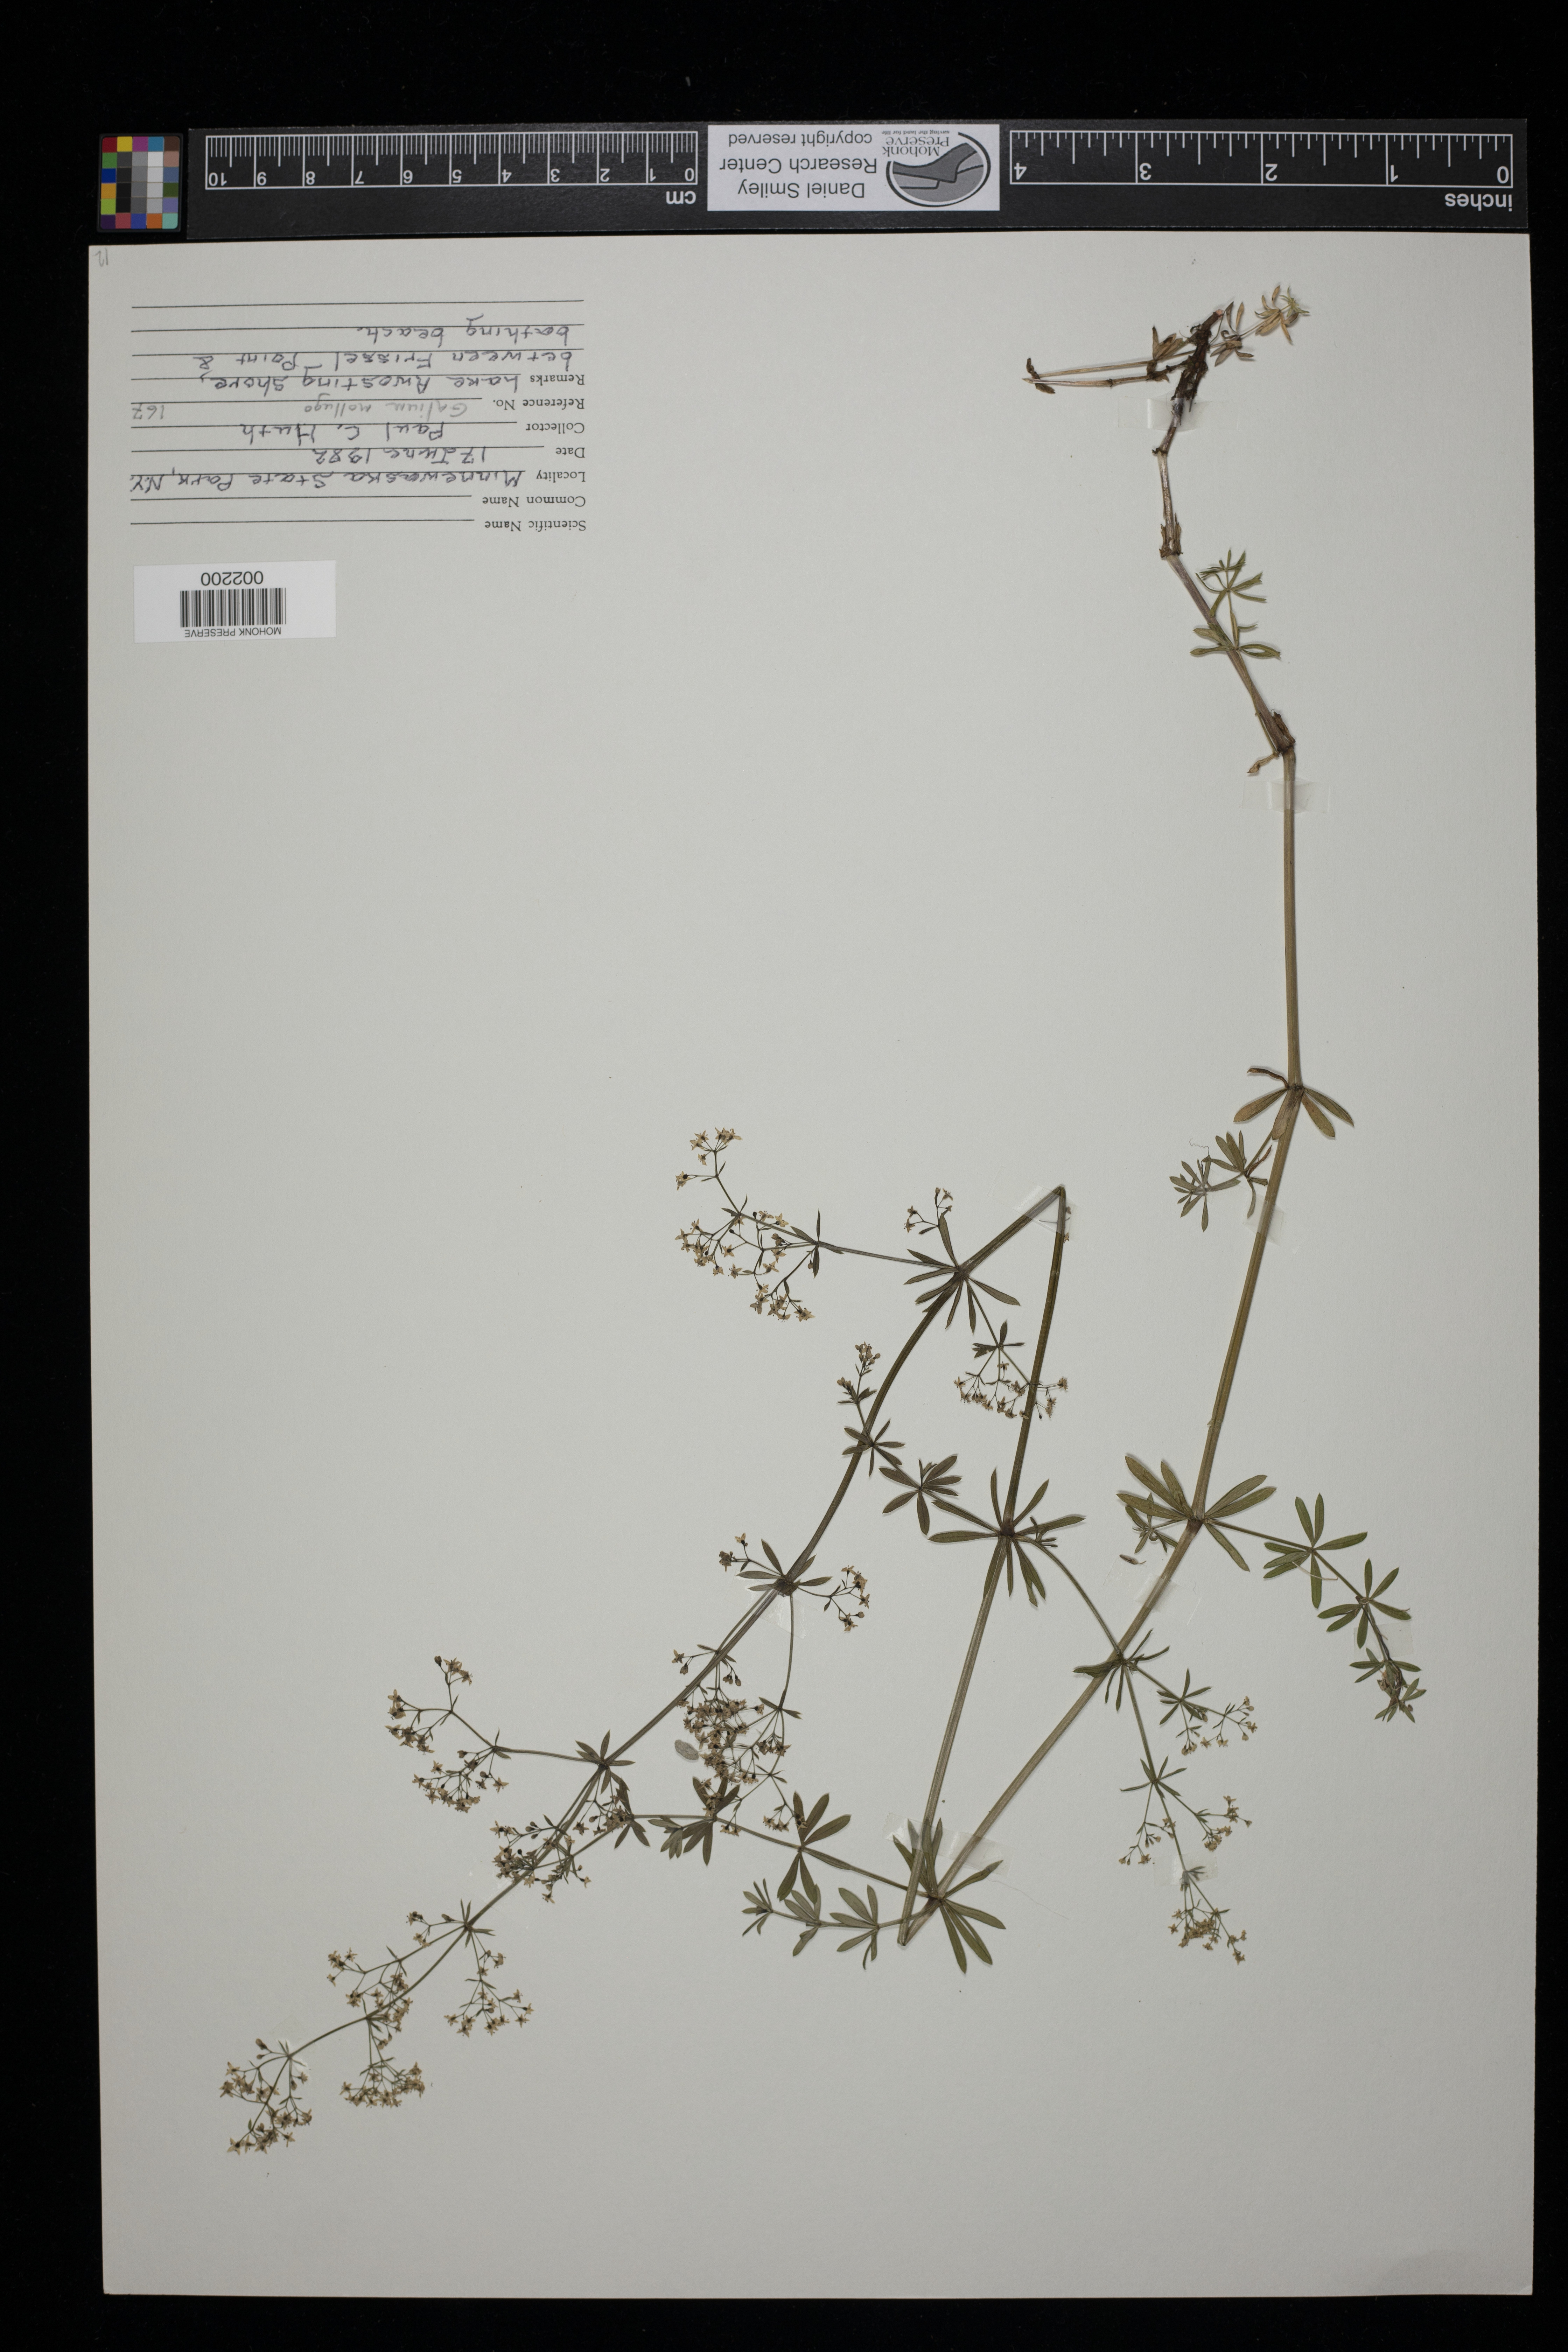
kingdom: Plantae
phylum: Tracheophyta
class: Magnoliopsida
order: Gentianales
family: Rubiaceae
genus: Galium
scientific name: Galium mollugo
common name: Hedge bedstraw
